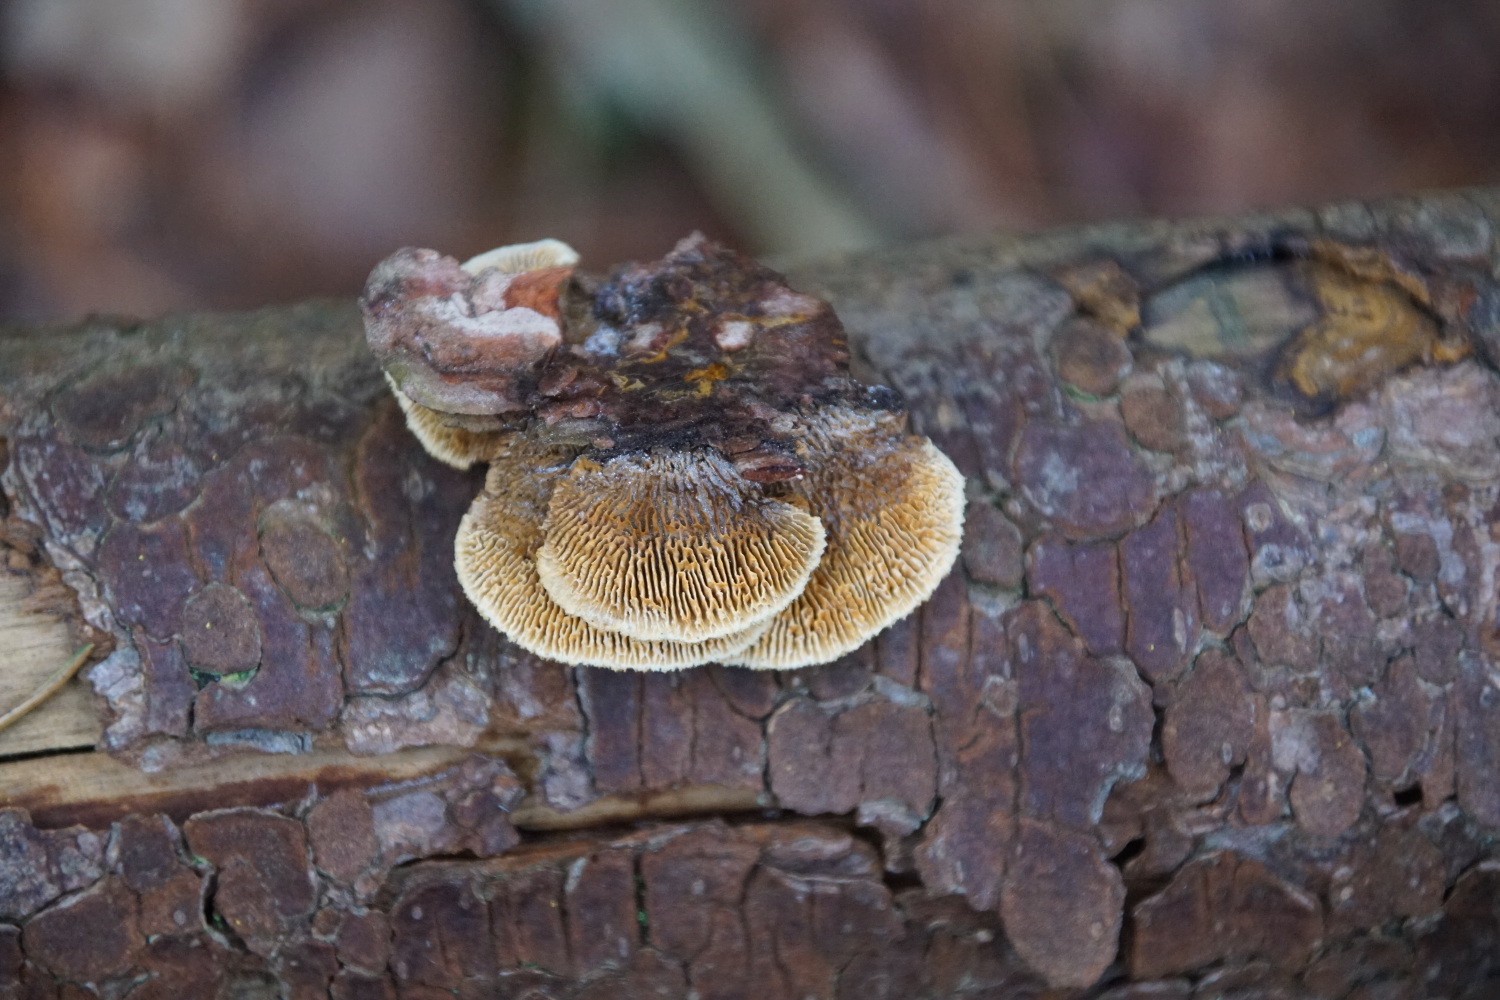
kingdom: Fungi
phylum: Basidiomycota
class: Agaricomycetes
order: Gloeophyllales
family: Gloeophyllaceae
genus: Gloeophyllum
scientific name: Gloeophyllum sepiarium
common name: fyrre-korkhat
